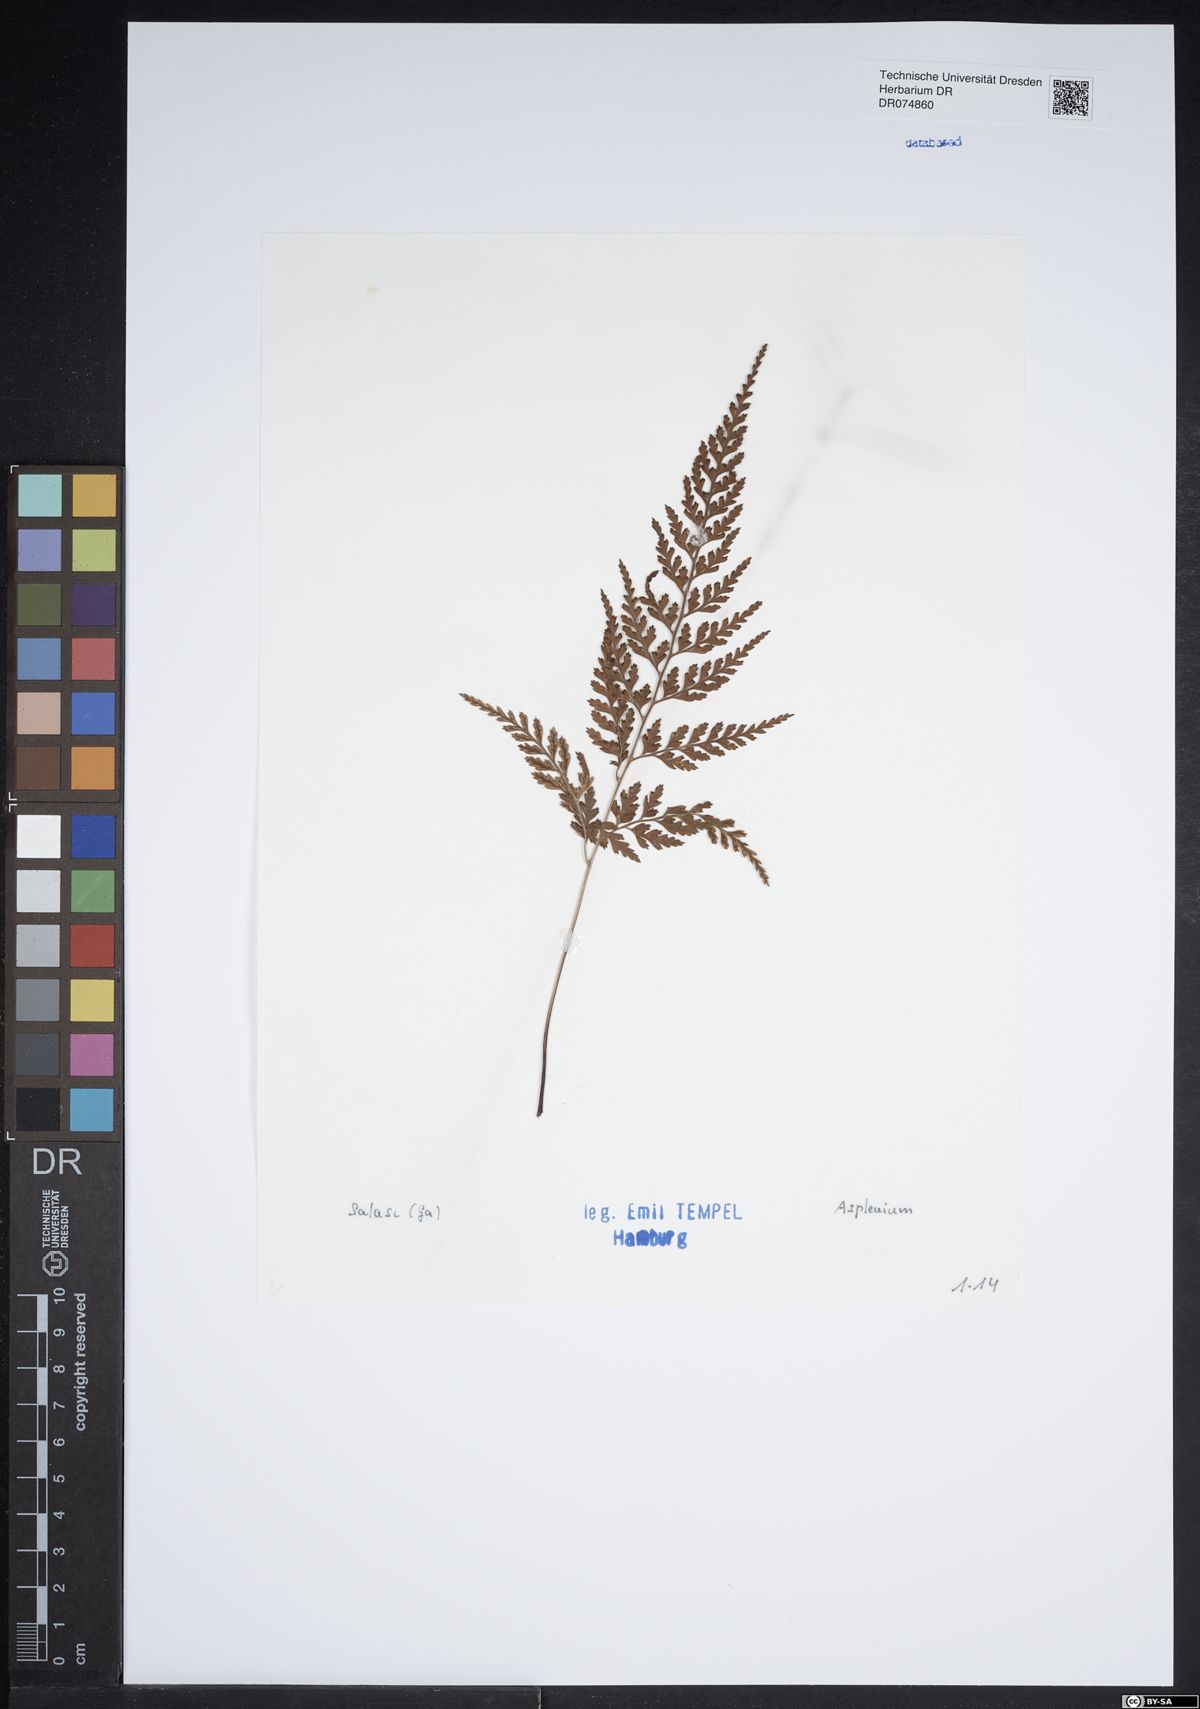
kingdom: Plantae
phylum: Tracheophyta
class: Polypodiopsida
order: Polypodiales
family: Aspleniaceae
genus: Asplenium
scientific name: Asplenium
